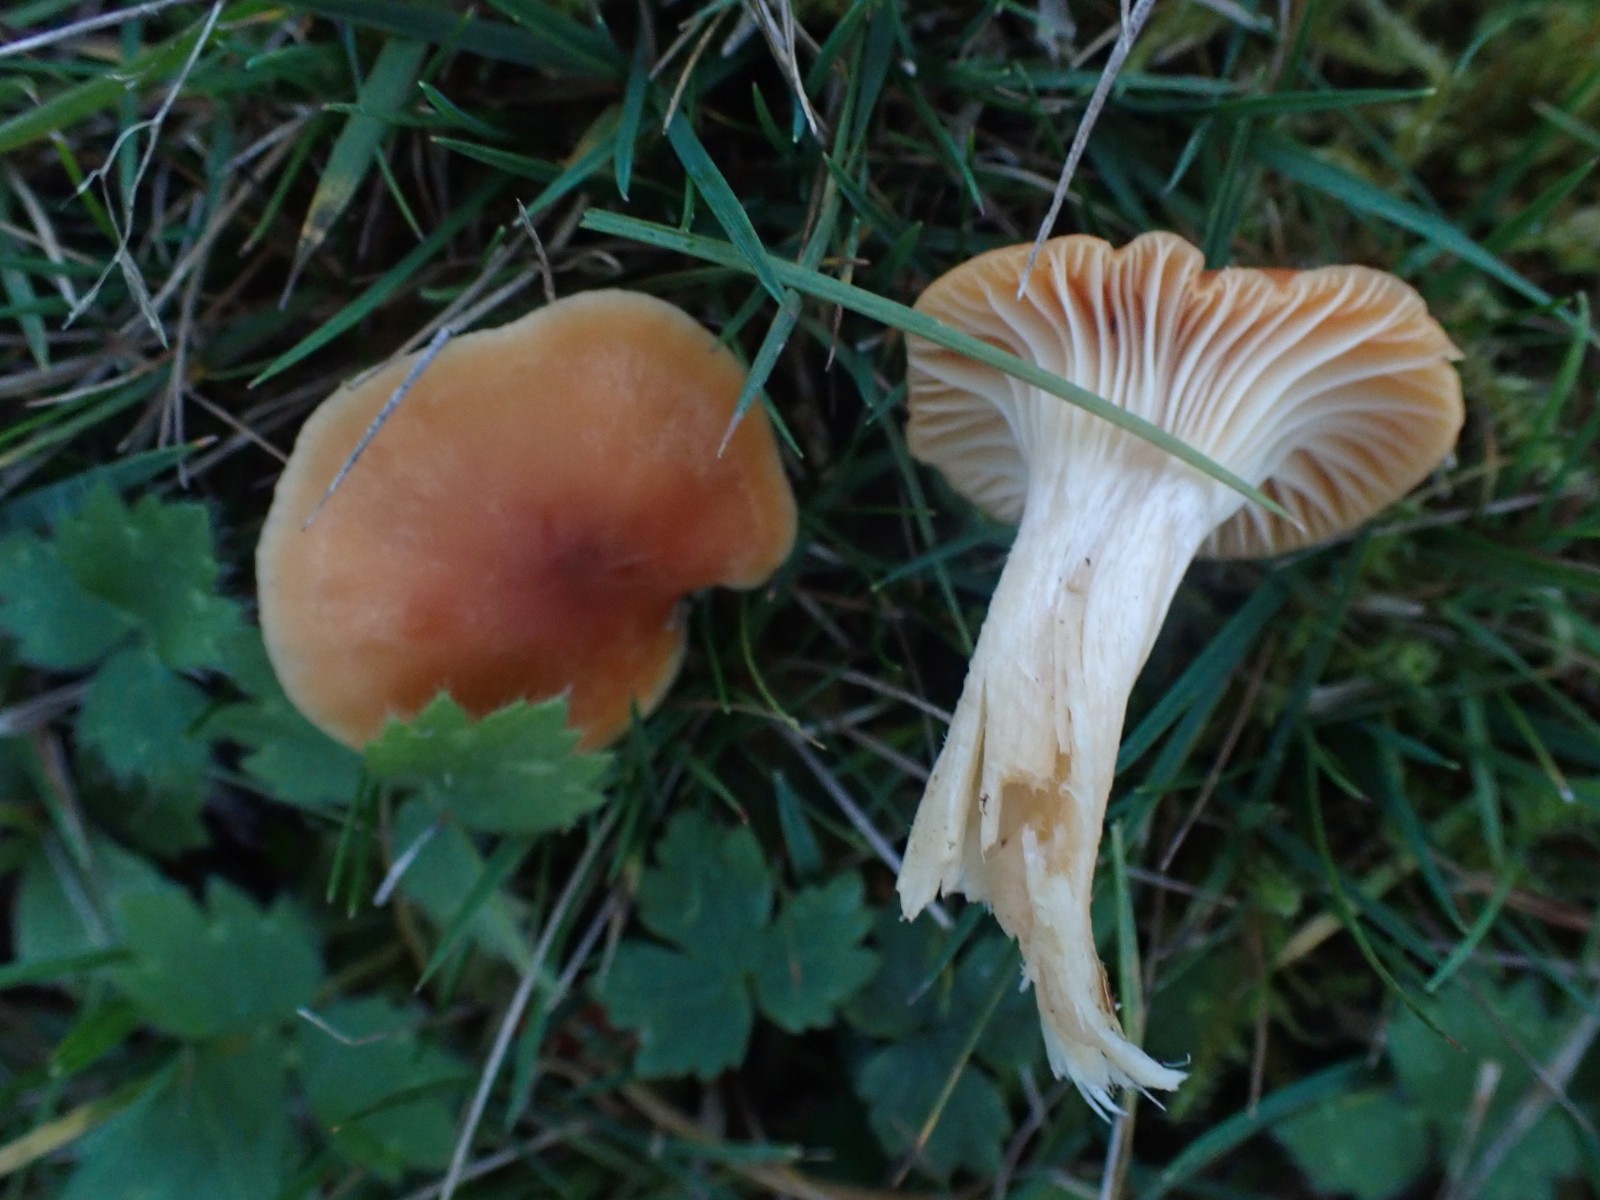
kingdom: Fungi
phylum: Basidiomycota
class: Agaricomycetes
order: Agaricales
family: Hygrophoraceae
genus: Cuphophyllus
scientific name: Cuphophyllus pratensis
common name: eng-vokshat
